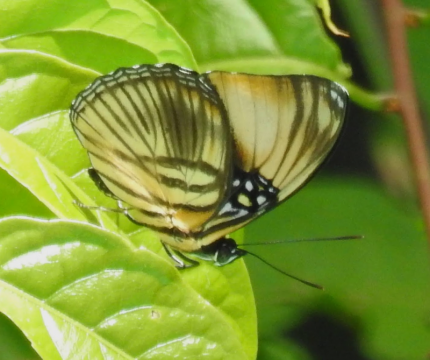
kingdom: Animalia
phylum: Arthropoda
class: Insecta
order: Lepidoptera
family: Nymphalidae
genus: Limenitis
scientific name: Limenitis melanthe
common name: Rayed Sister
